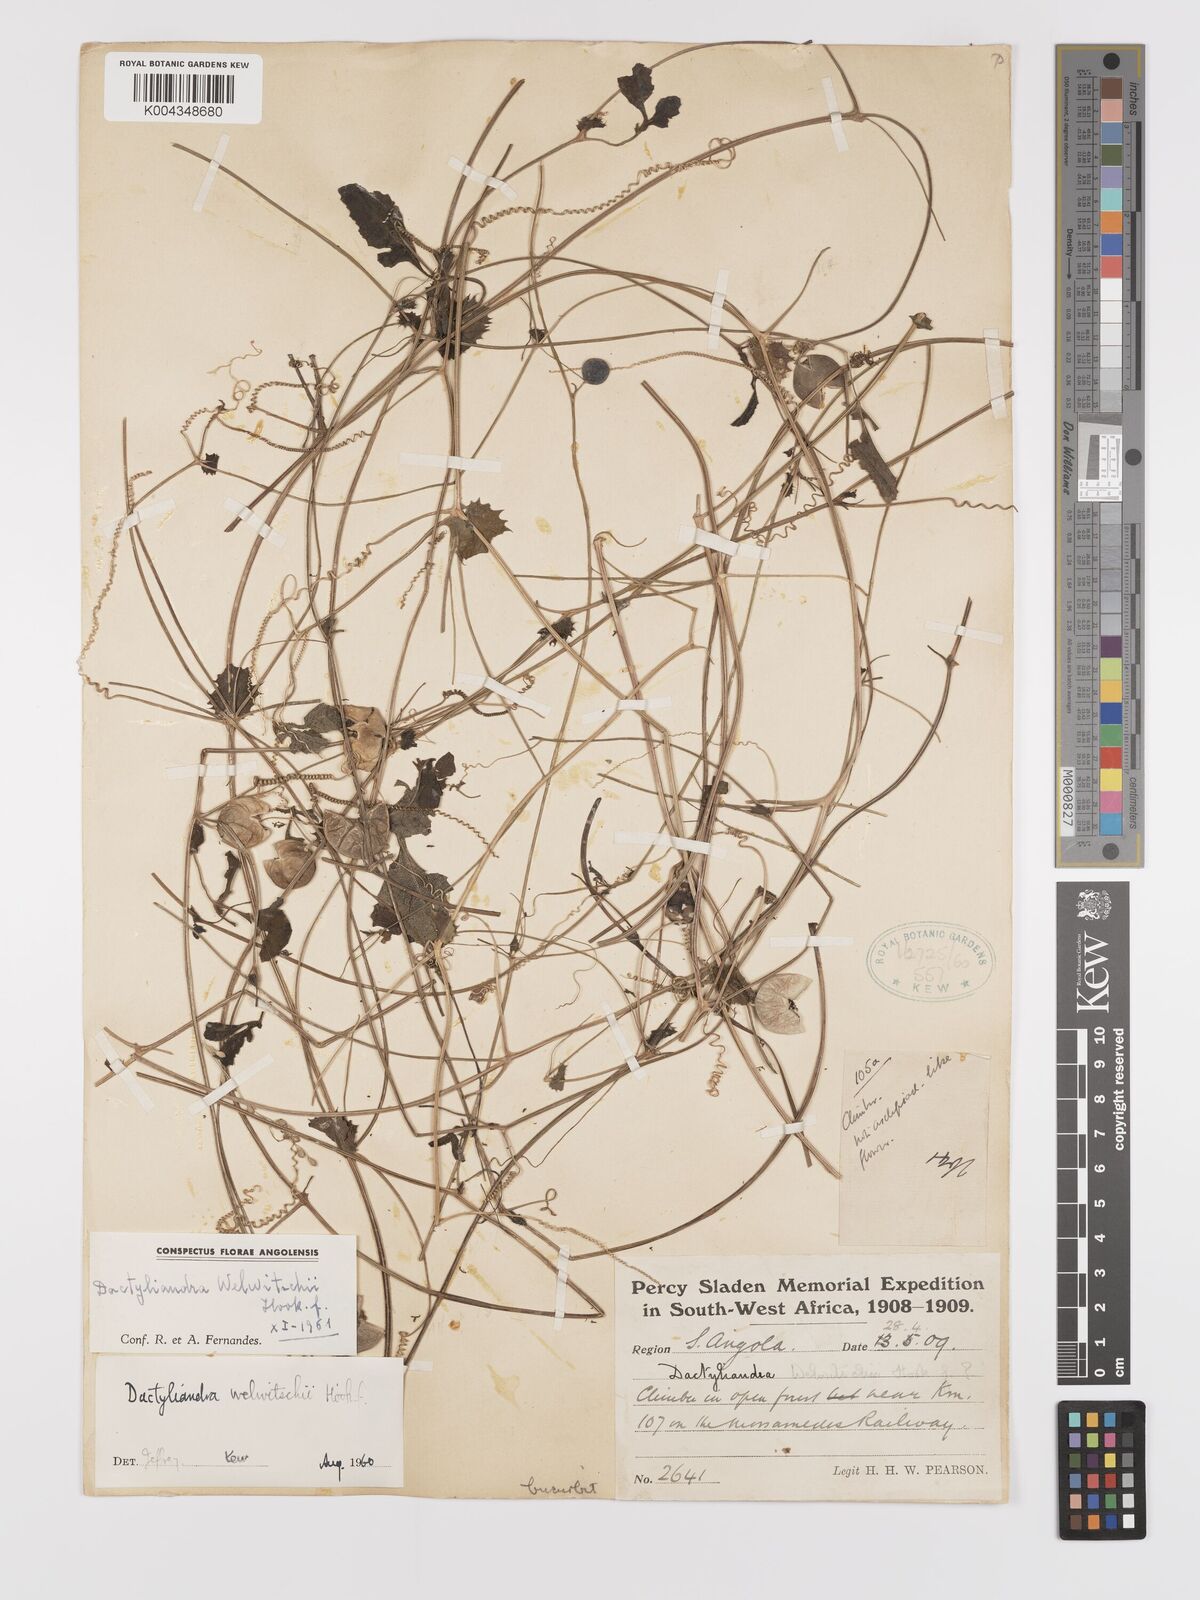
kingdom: Plantae
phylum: Tracheophyta
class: Magnoliopsida
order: Cucurbitales
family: Cucurbitaceae
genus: Dactyliandra
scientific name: Dactyliandra welwitschii
